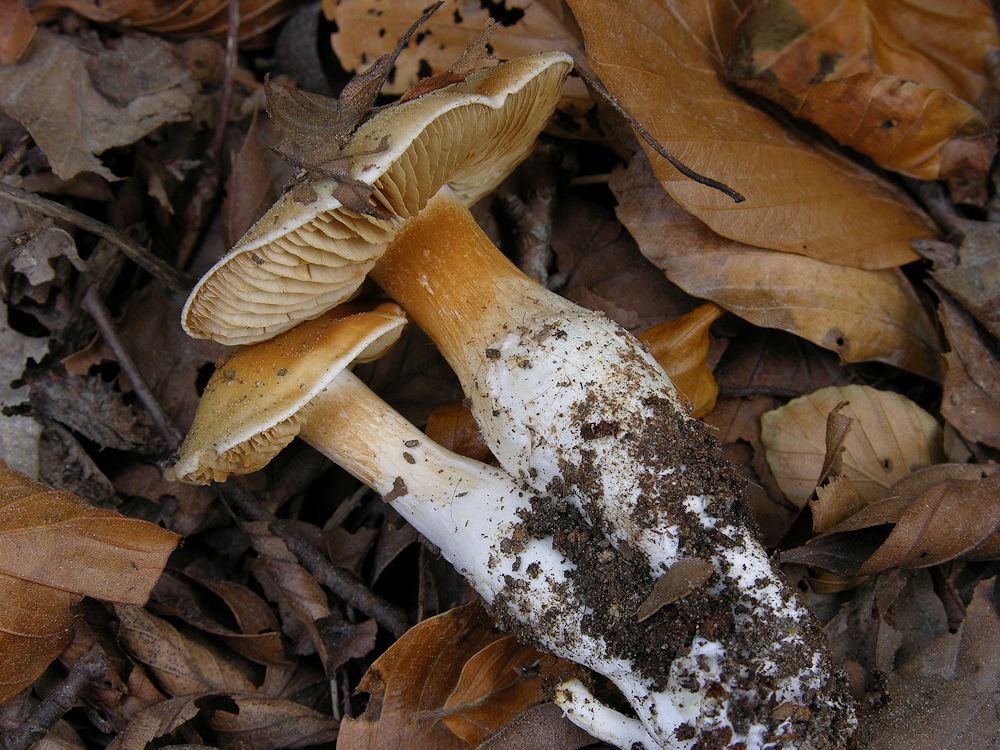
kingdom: Fungi
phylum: Basidiomycota
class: Agaricomycetes
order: Agaricales
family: Cortinariaceae
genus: Thaxterogaster
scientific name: Thaxterogaster barbatus
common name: elfenbens-slørhat
